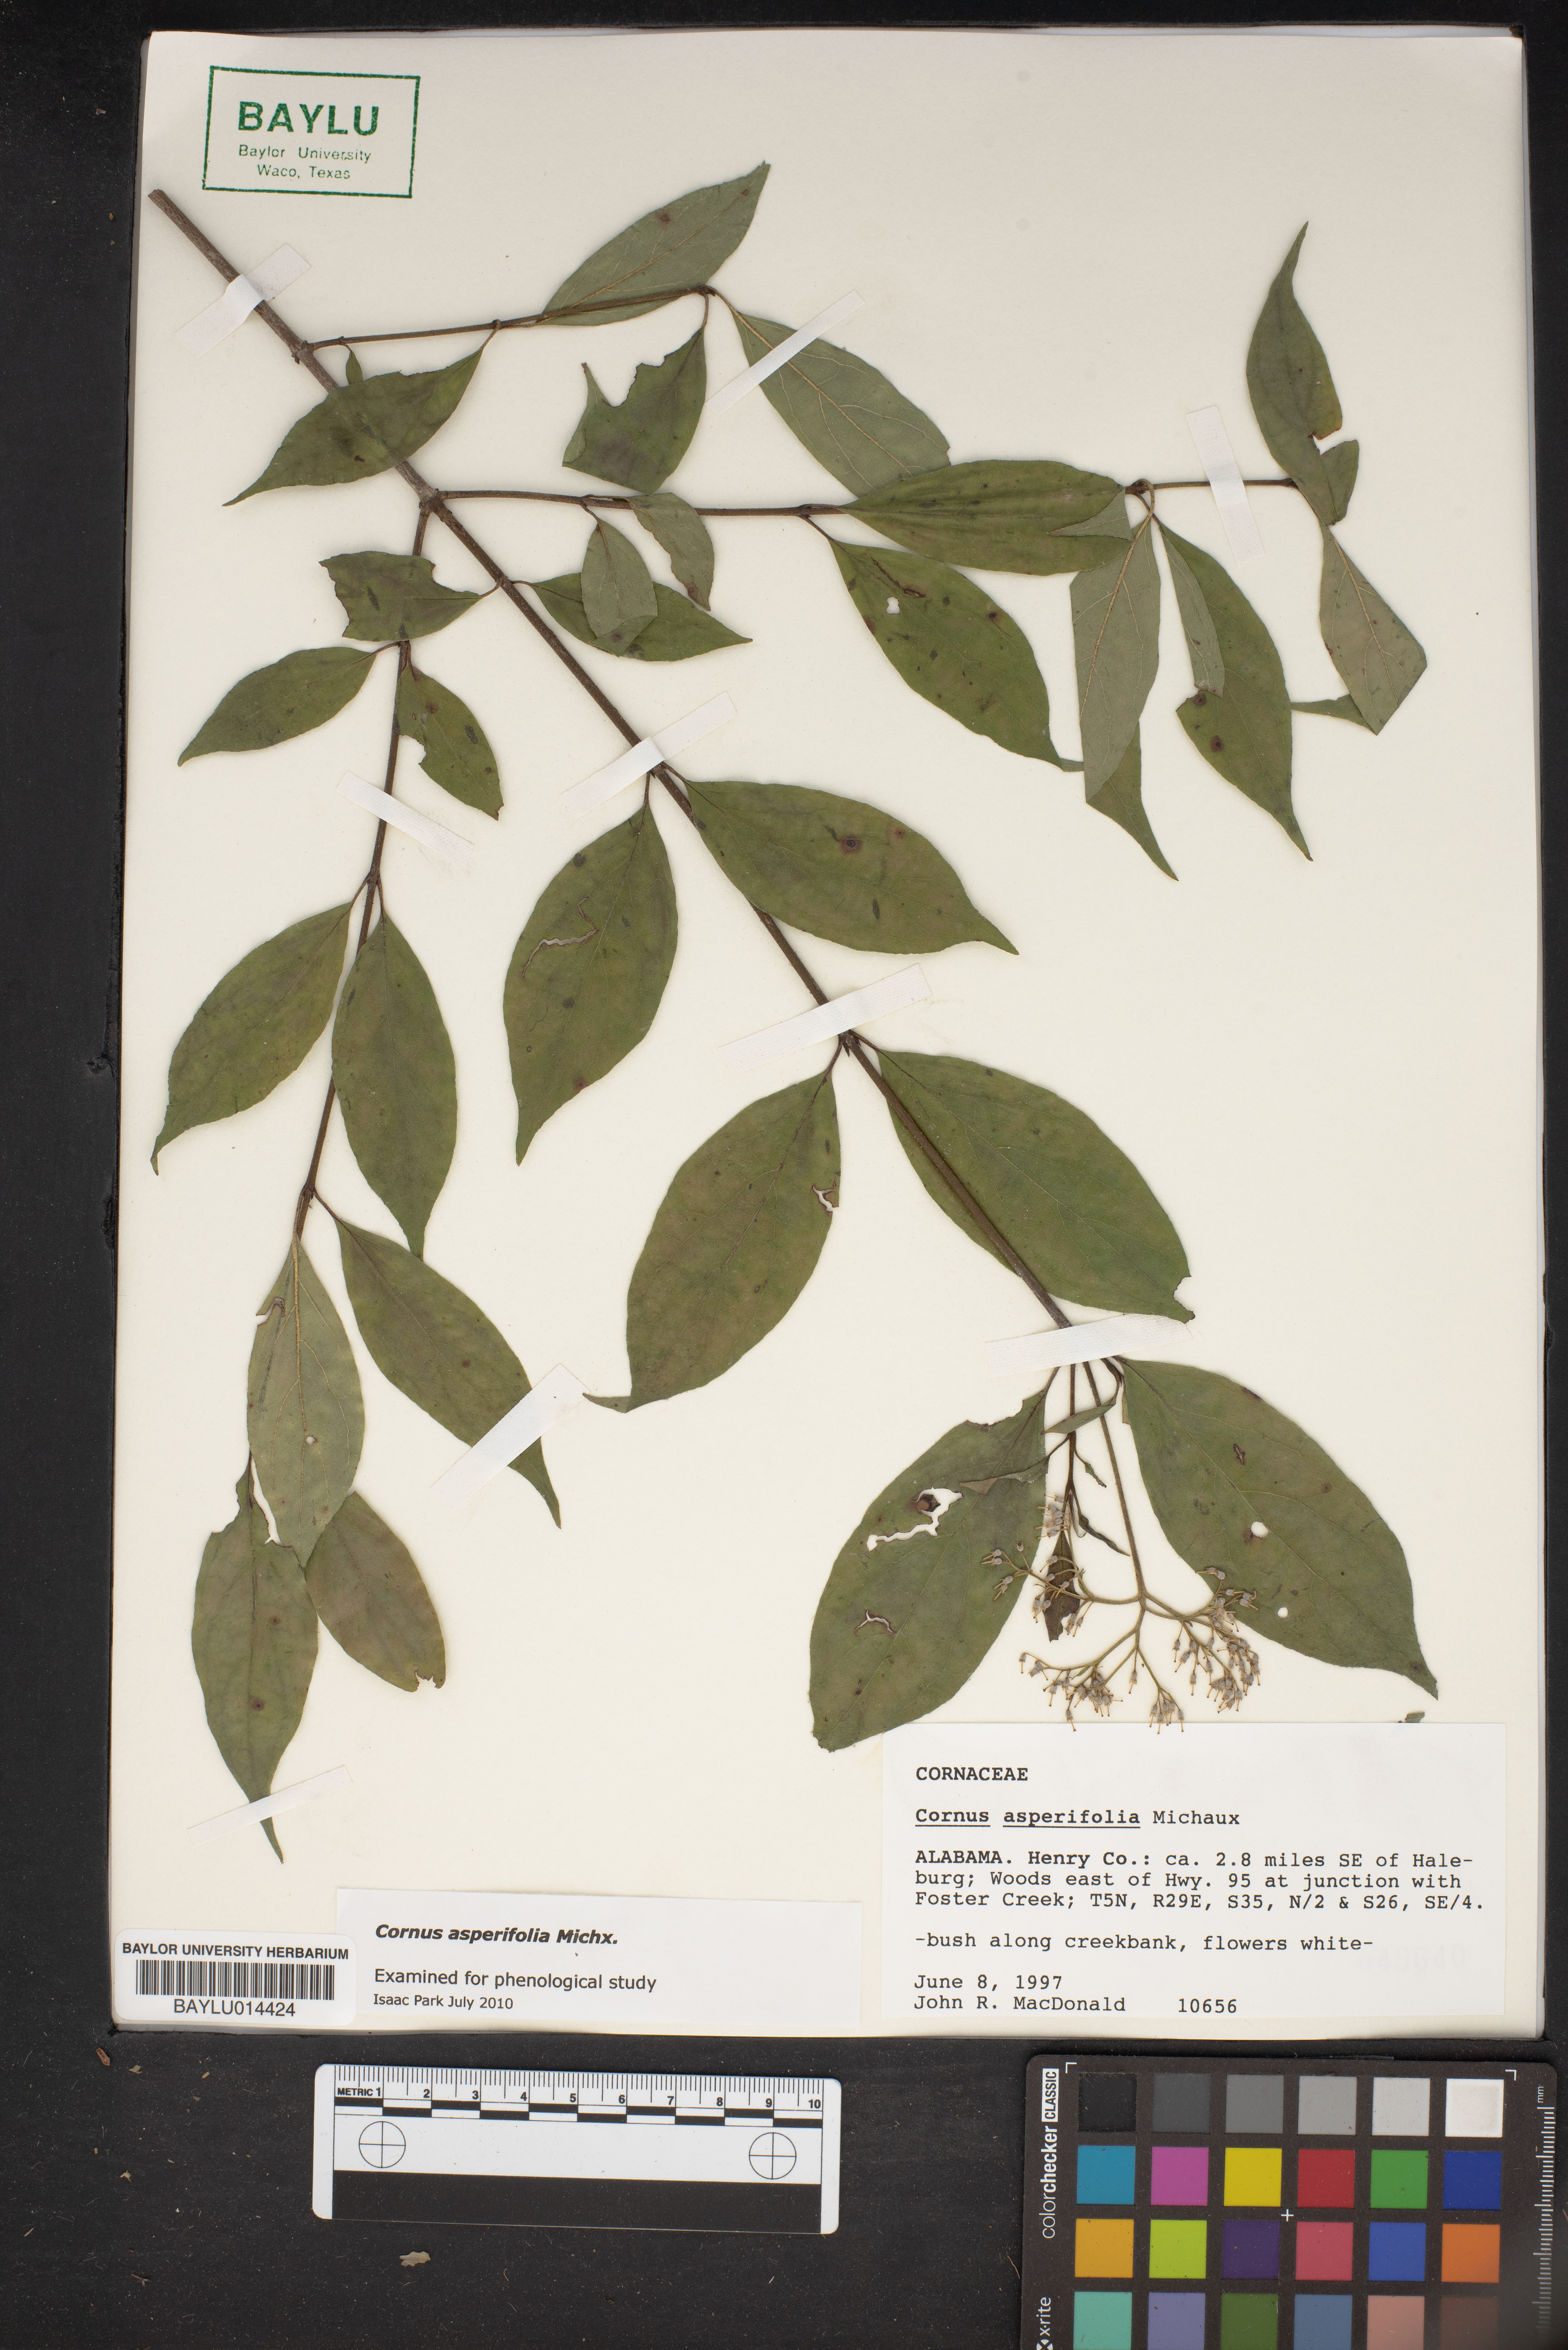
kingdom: Plantae
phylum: Tracheophyta
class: Magnoliopsida
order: Cornales
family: Cornaceae
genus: Cornus
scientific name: Cornus asperifolia
